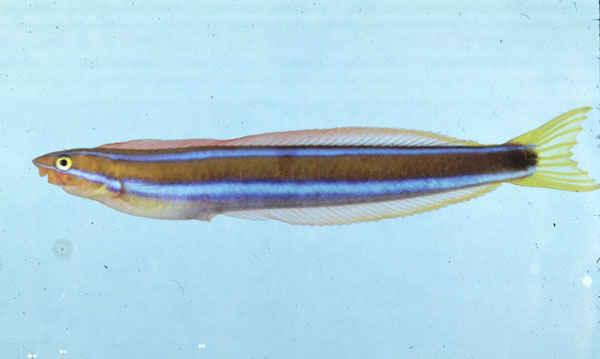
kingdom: Animalia
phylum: Chordata
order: Perciformes
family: Blenniidae
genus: Plagiotremus
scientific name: Plagiotremus rhinorhynchos
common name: Bluestriped fangblenny
